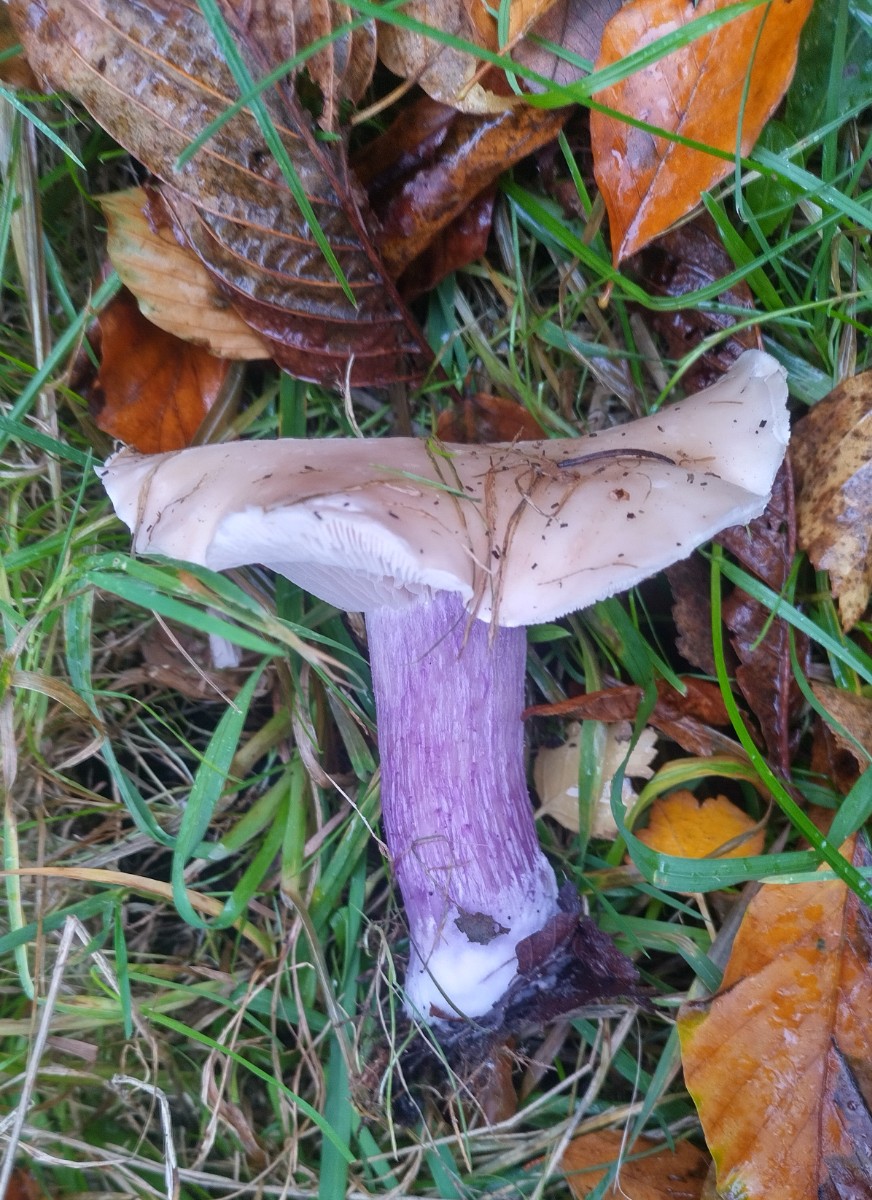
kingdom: Fungi
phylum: Basidiomycota
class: Agaricomycetes
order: Agaricales
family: Tricholomataceae
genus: Lepista
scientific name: Lepista personata
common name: bleg hekseringshat
